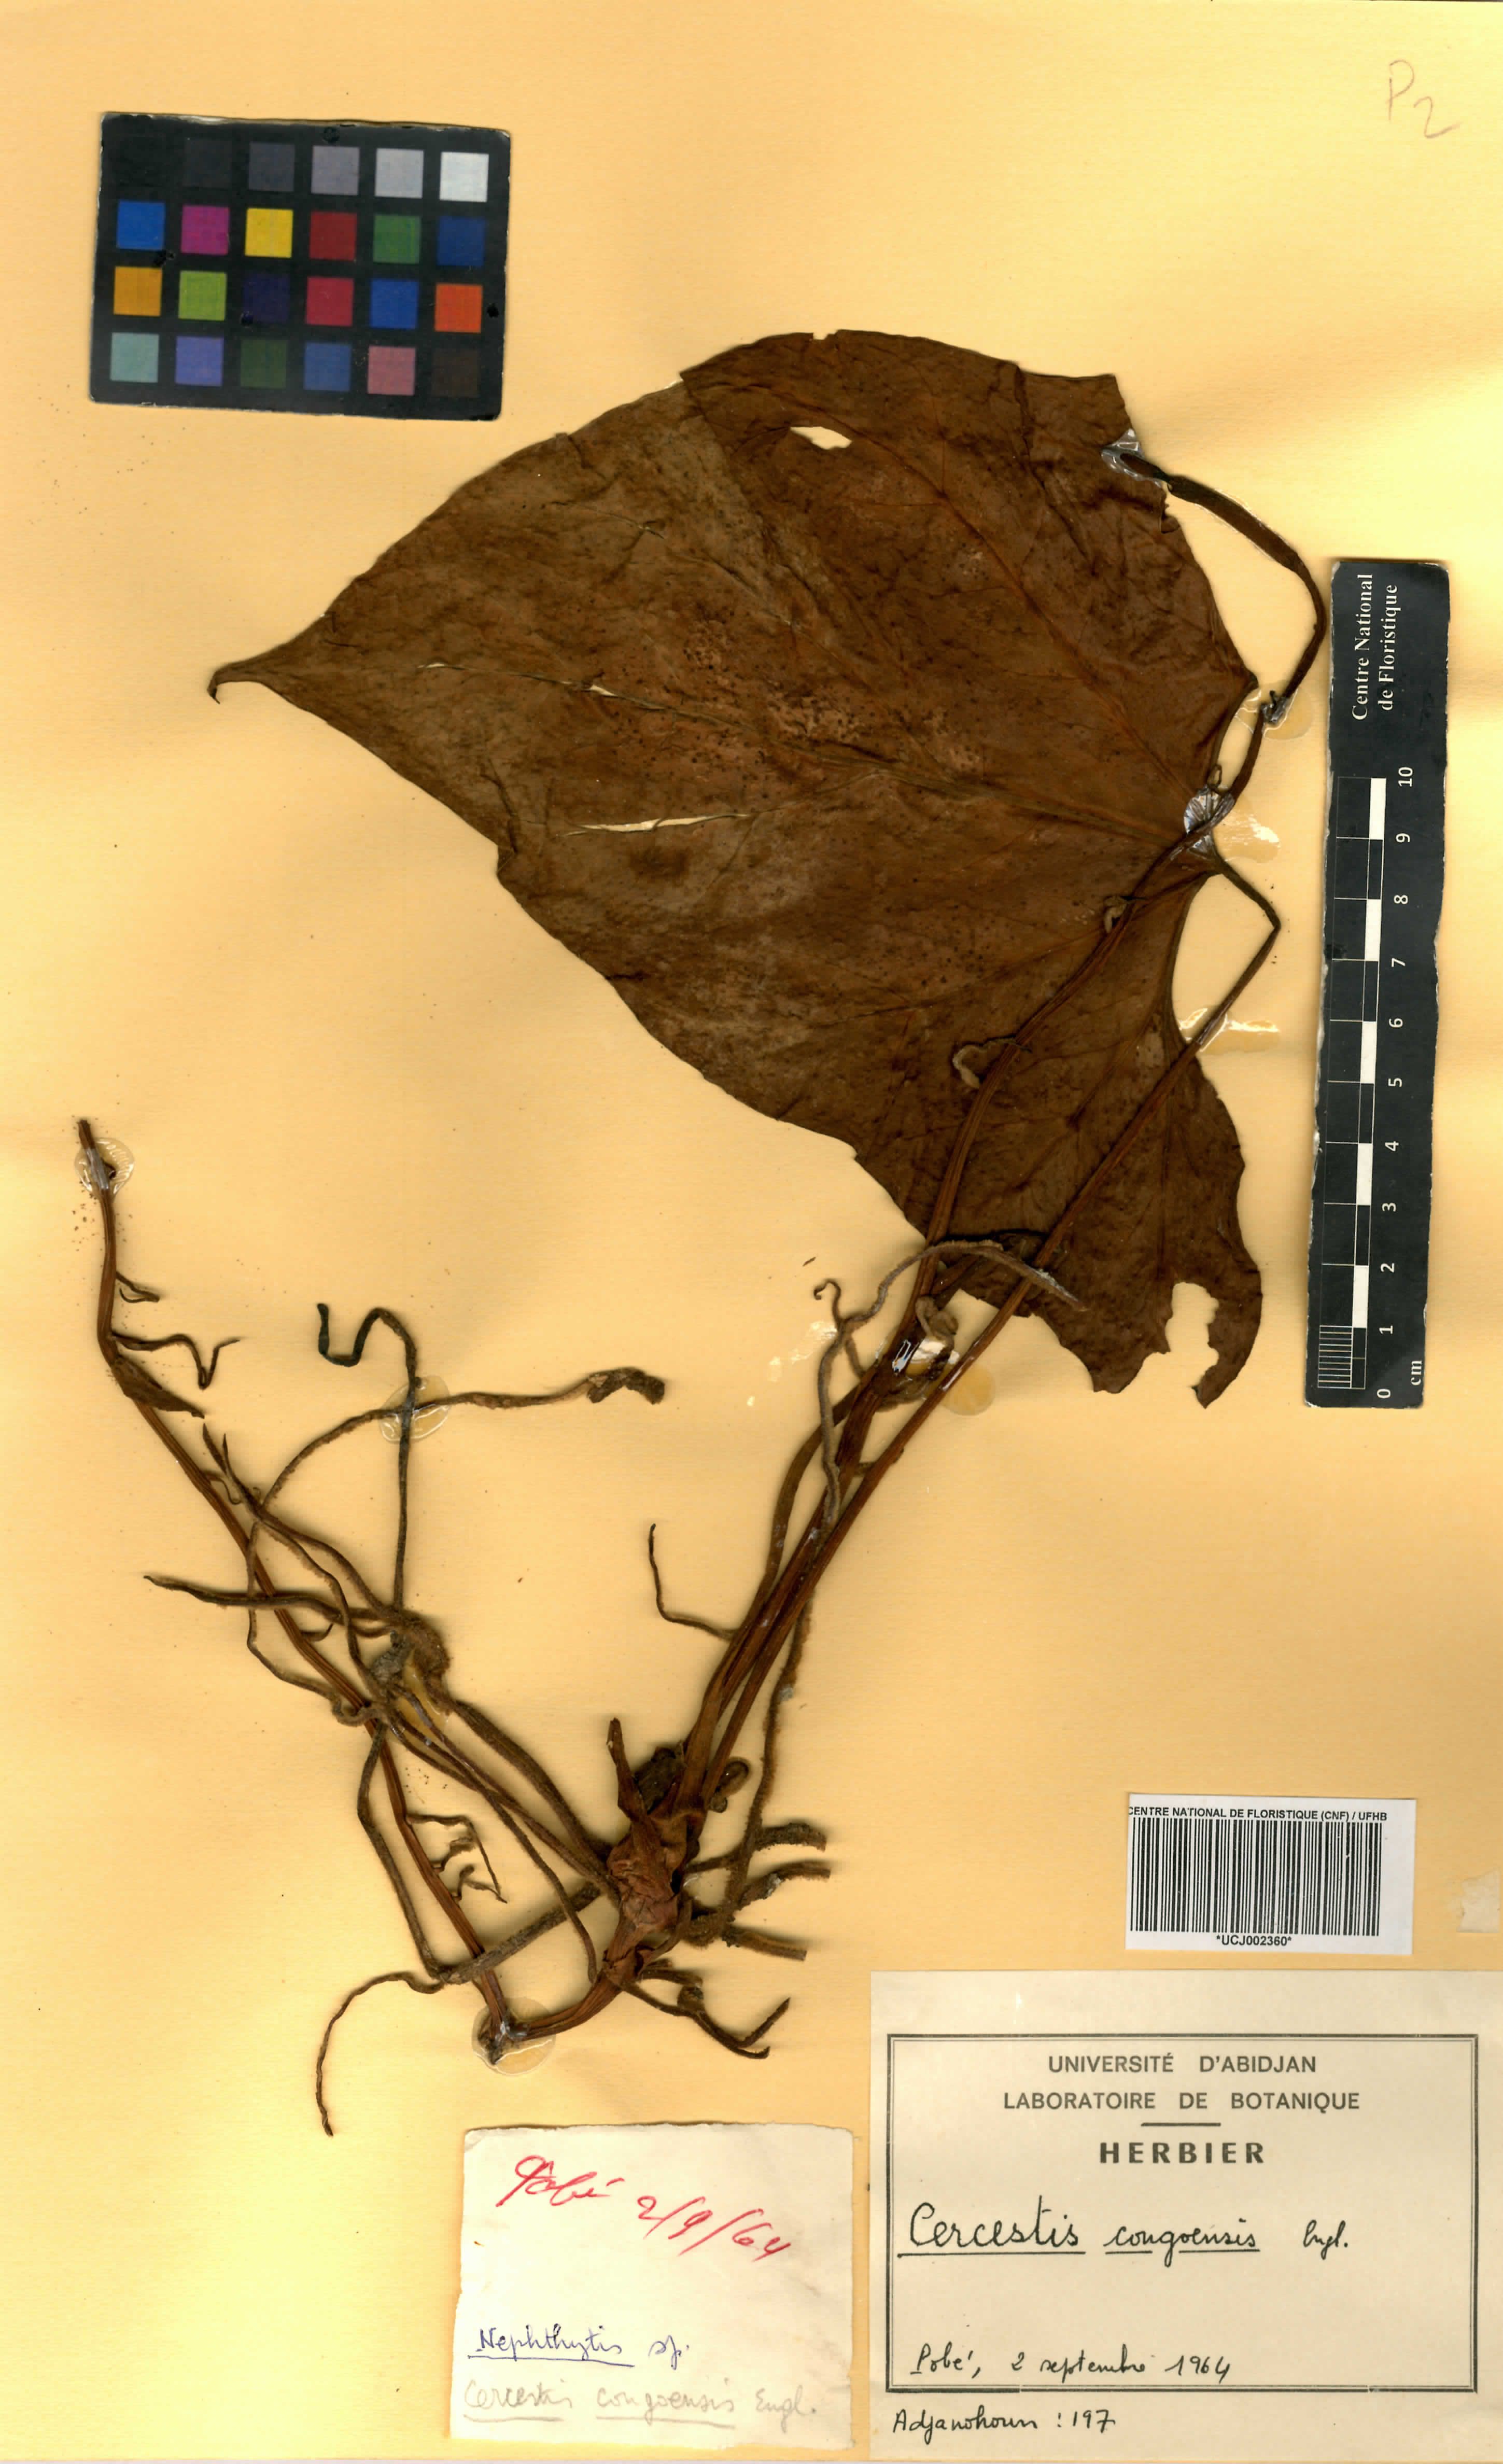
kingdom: Plantae
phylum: Tracheophyta
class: Liliopsida
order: Alismatales
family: Araceae
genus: Cercestis
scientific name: Cercestis congoensis
